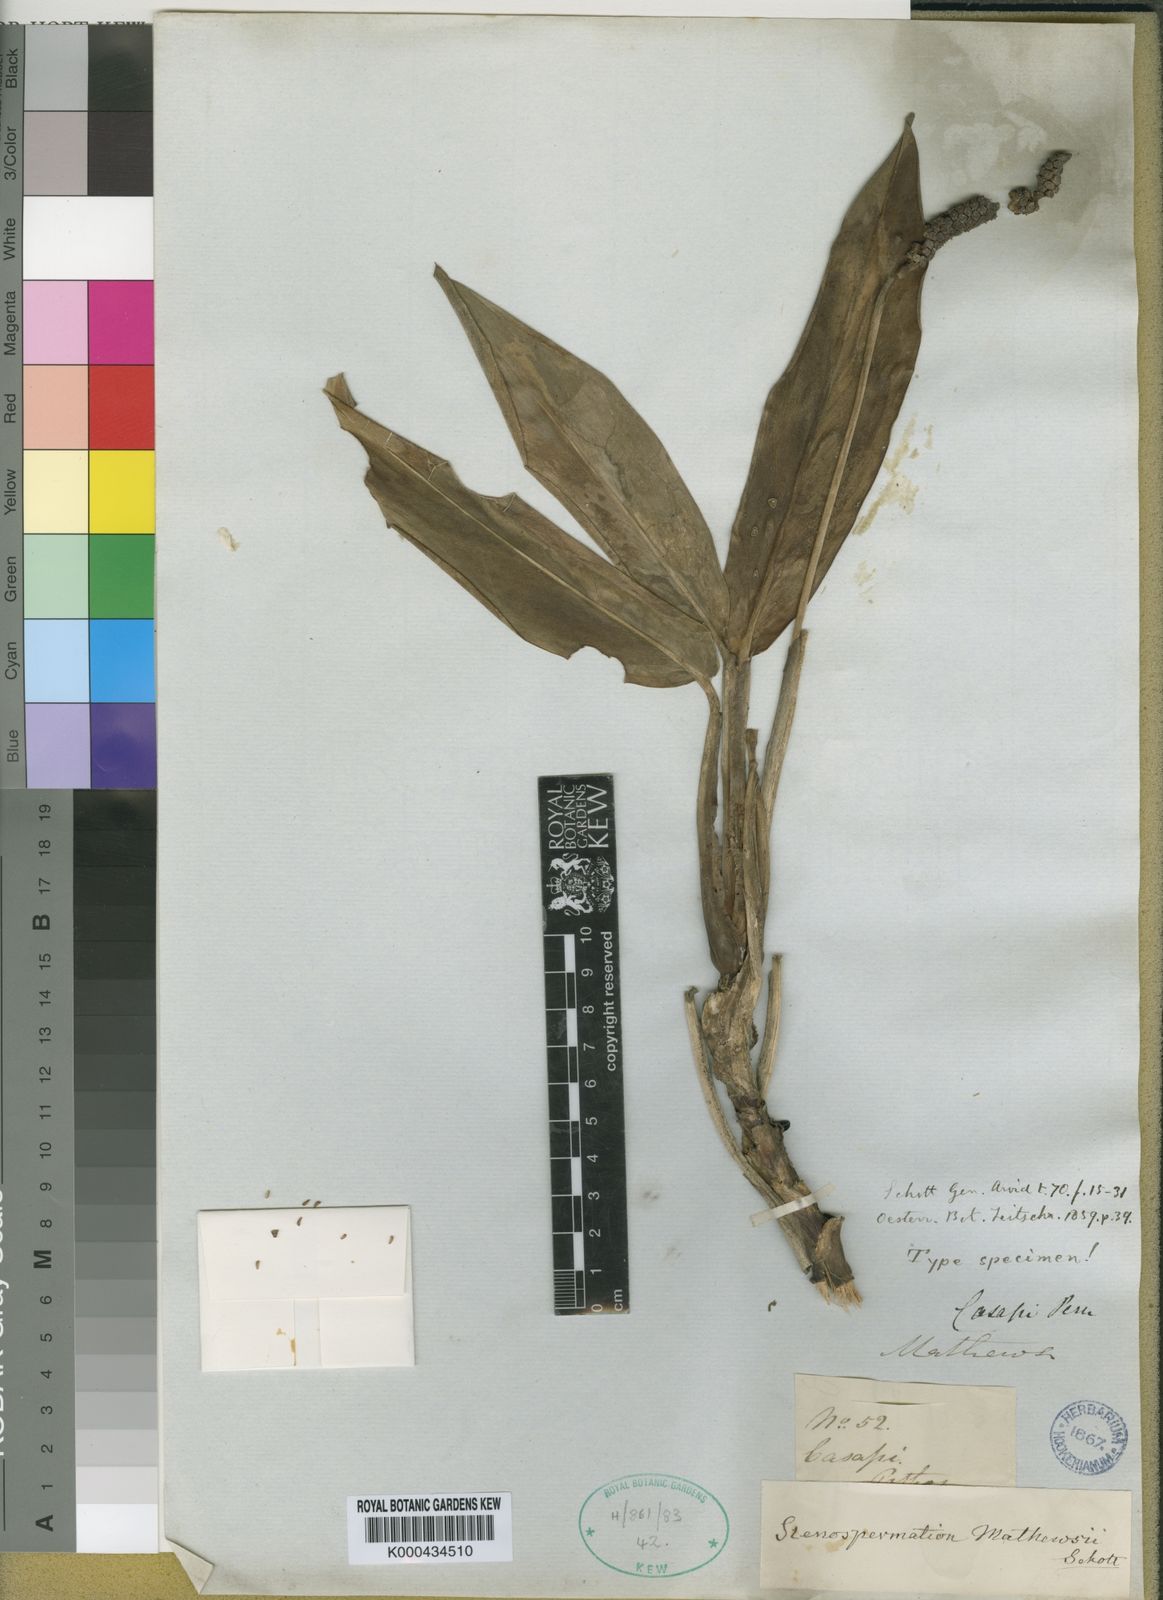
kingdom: Plantae
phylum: Tracheophyta
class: Liliopsida
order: Alismatales
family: Araceae
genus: Stenospermation
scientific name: Stenospermation mathewsii
